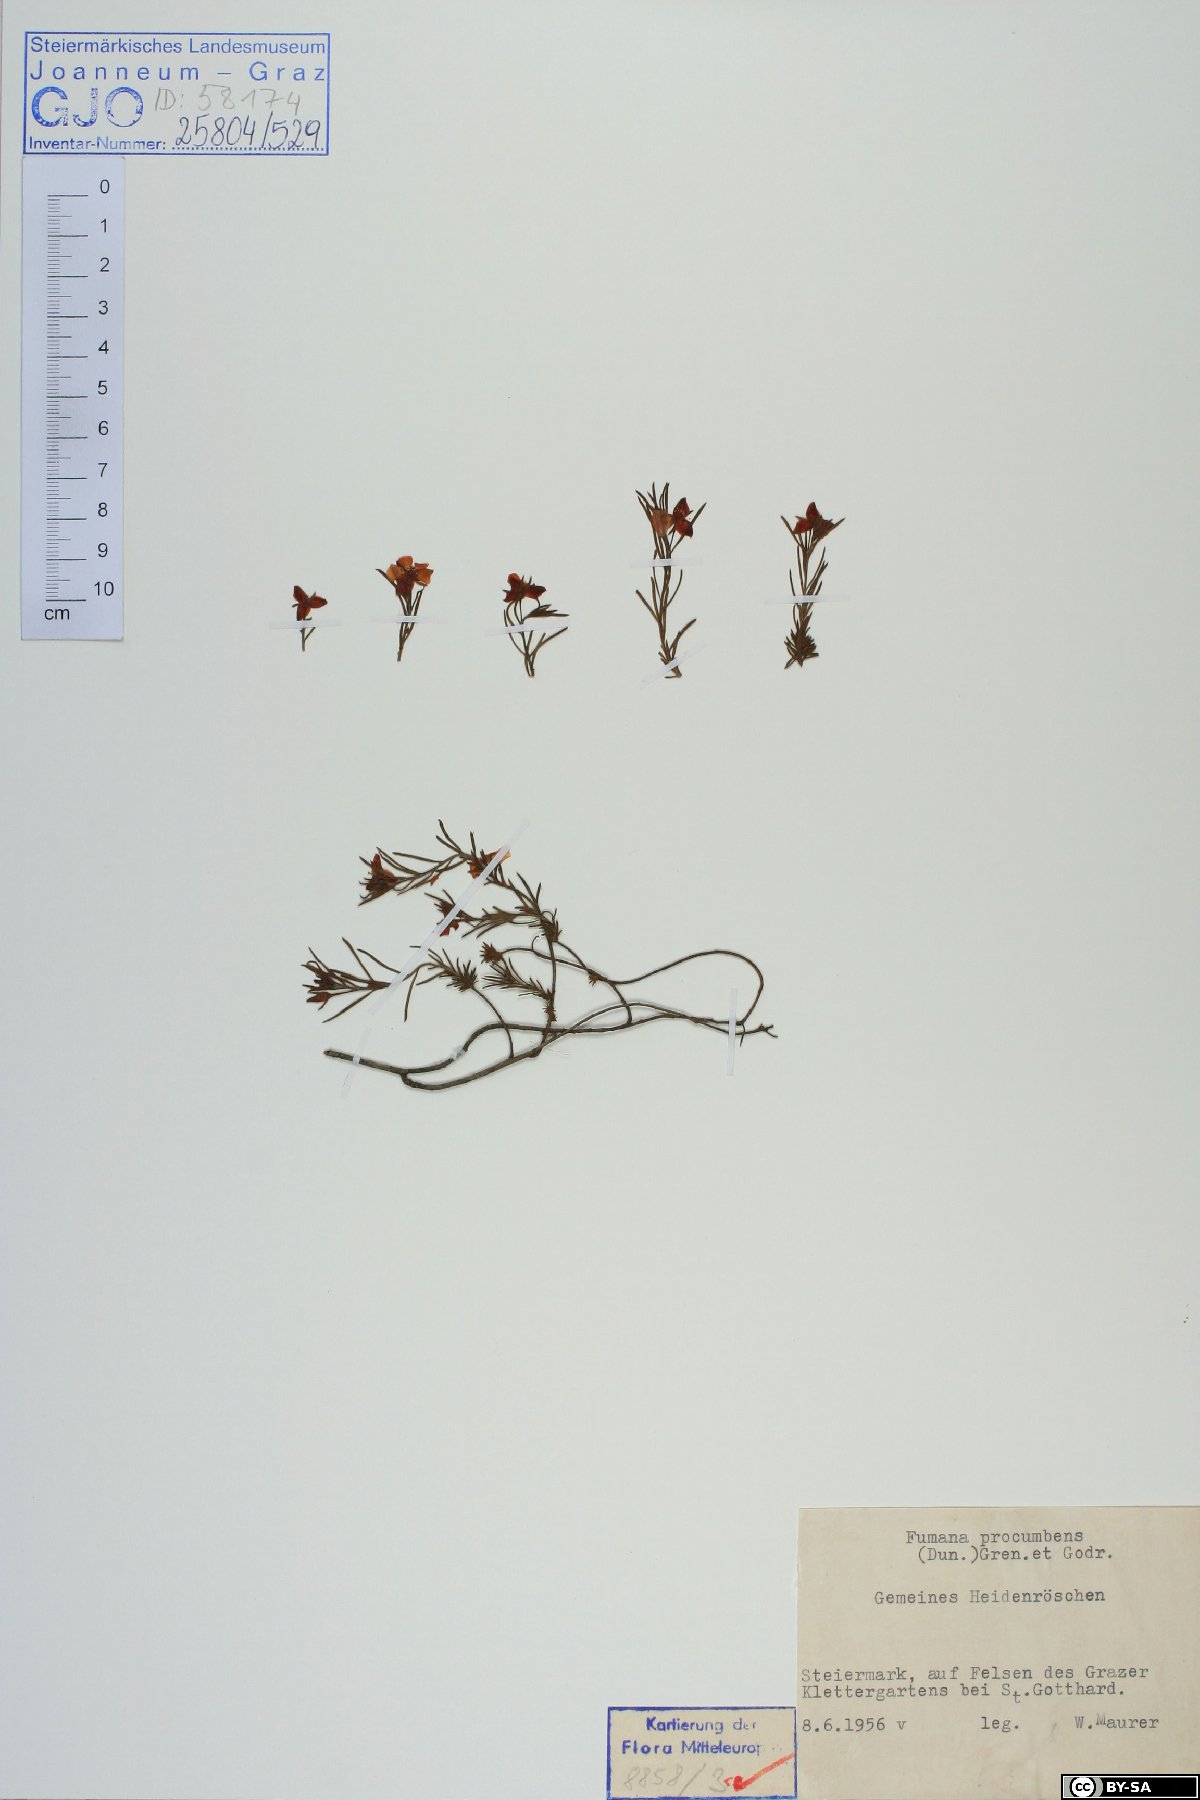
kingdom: Plantae
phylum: Tracheophyta
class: Magnoliopsida
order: Malvales
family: Cistaceae
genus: Fumana
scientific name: Fumana procumbens
